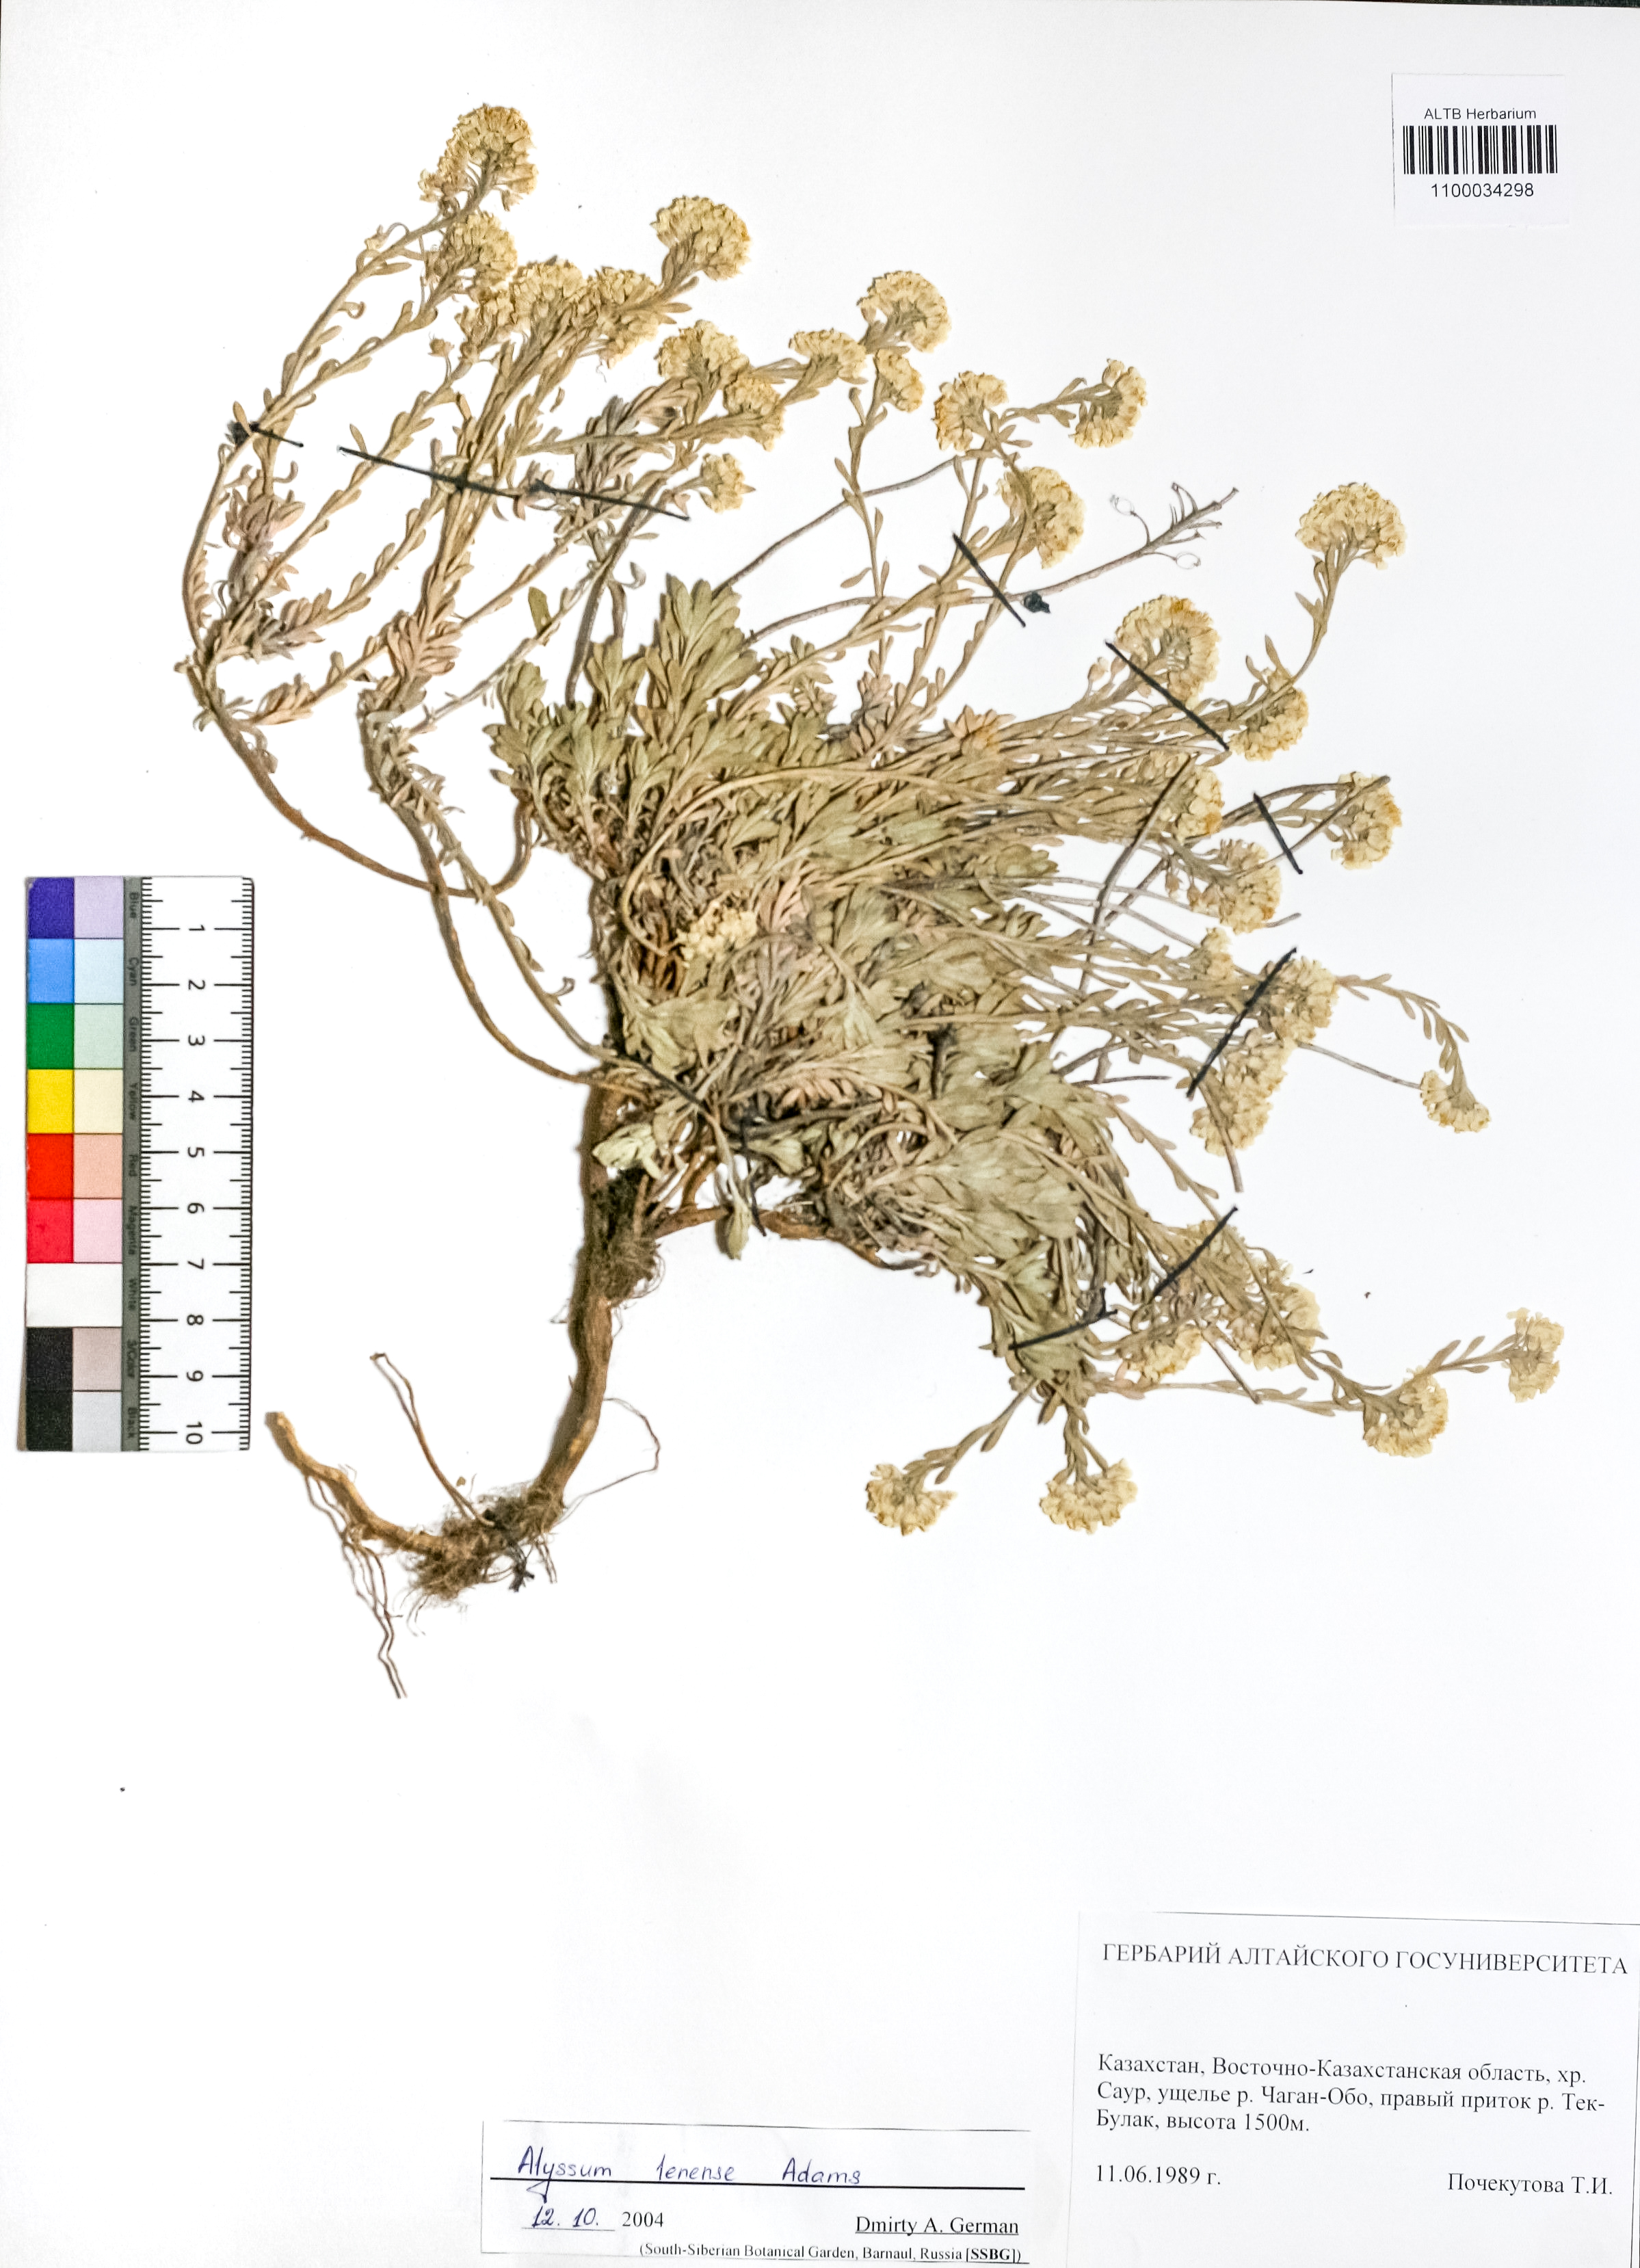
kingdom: Plantae
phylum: Tracheophyta
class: Magnoliopsida
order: Brassicales
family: Brassicaceae
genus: Alyssum
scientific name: Alyssum lenense
